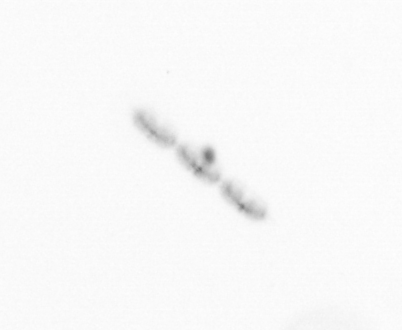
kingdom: Chromista
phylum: Ochrophyta
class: Bacillariophyceae
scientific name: Bacillariophyceae
